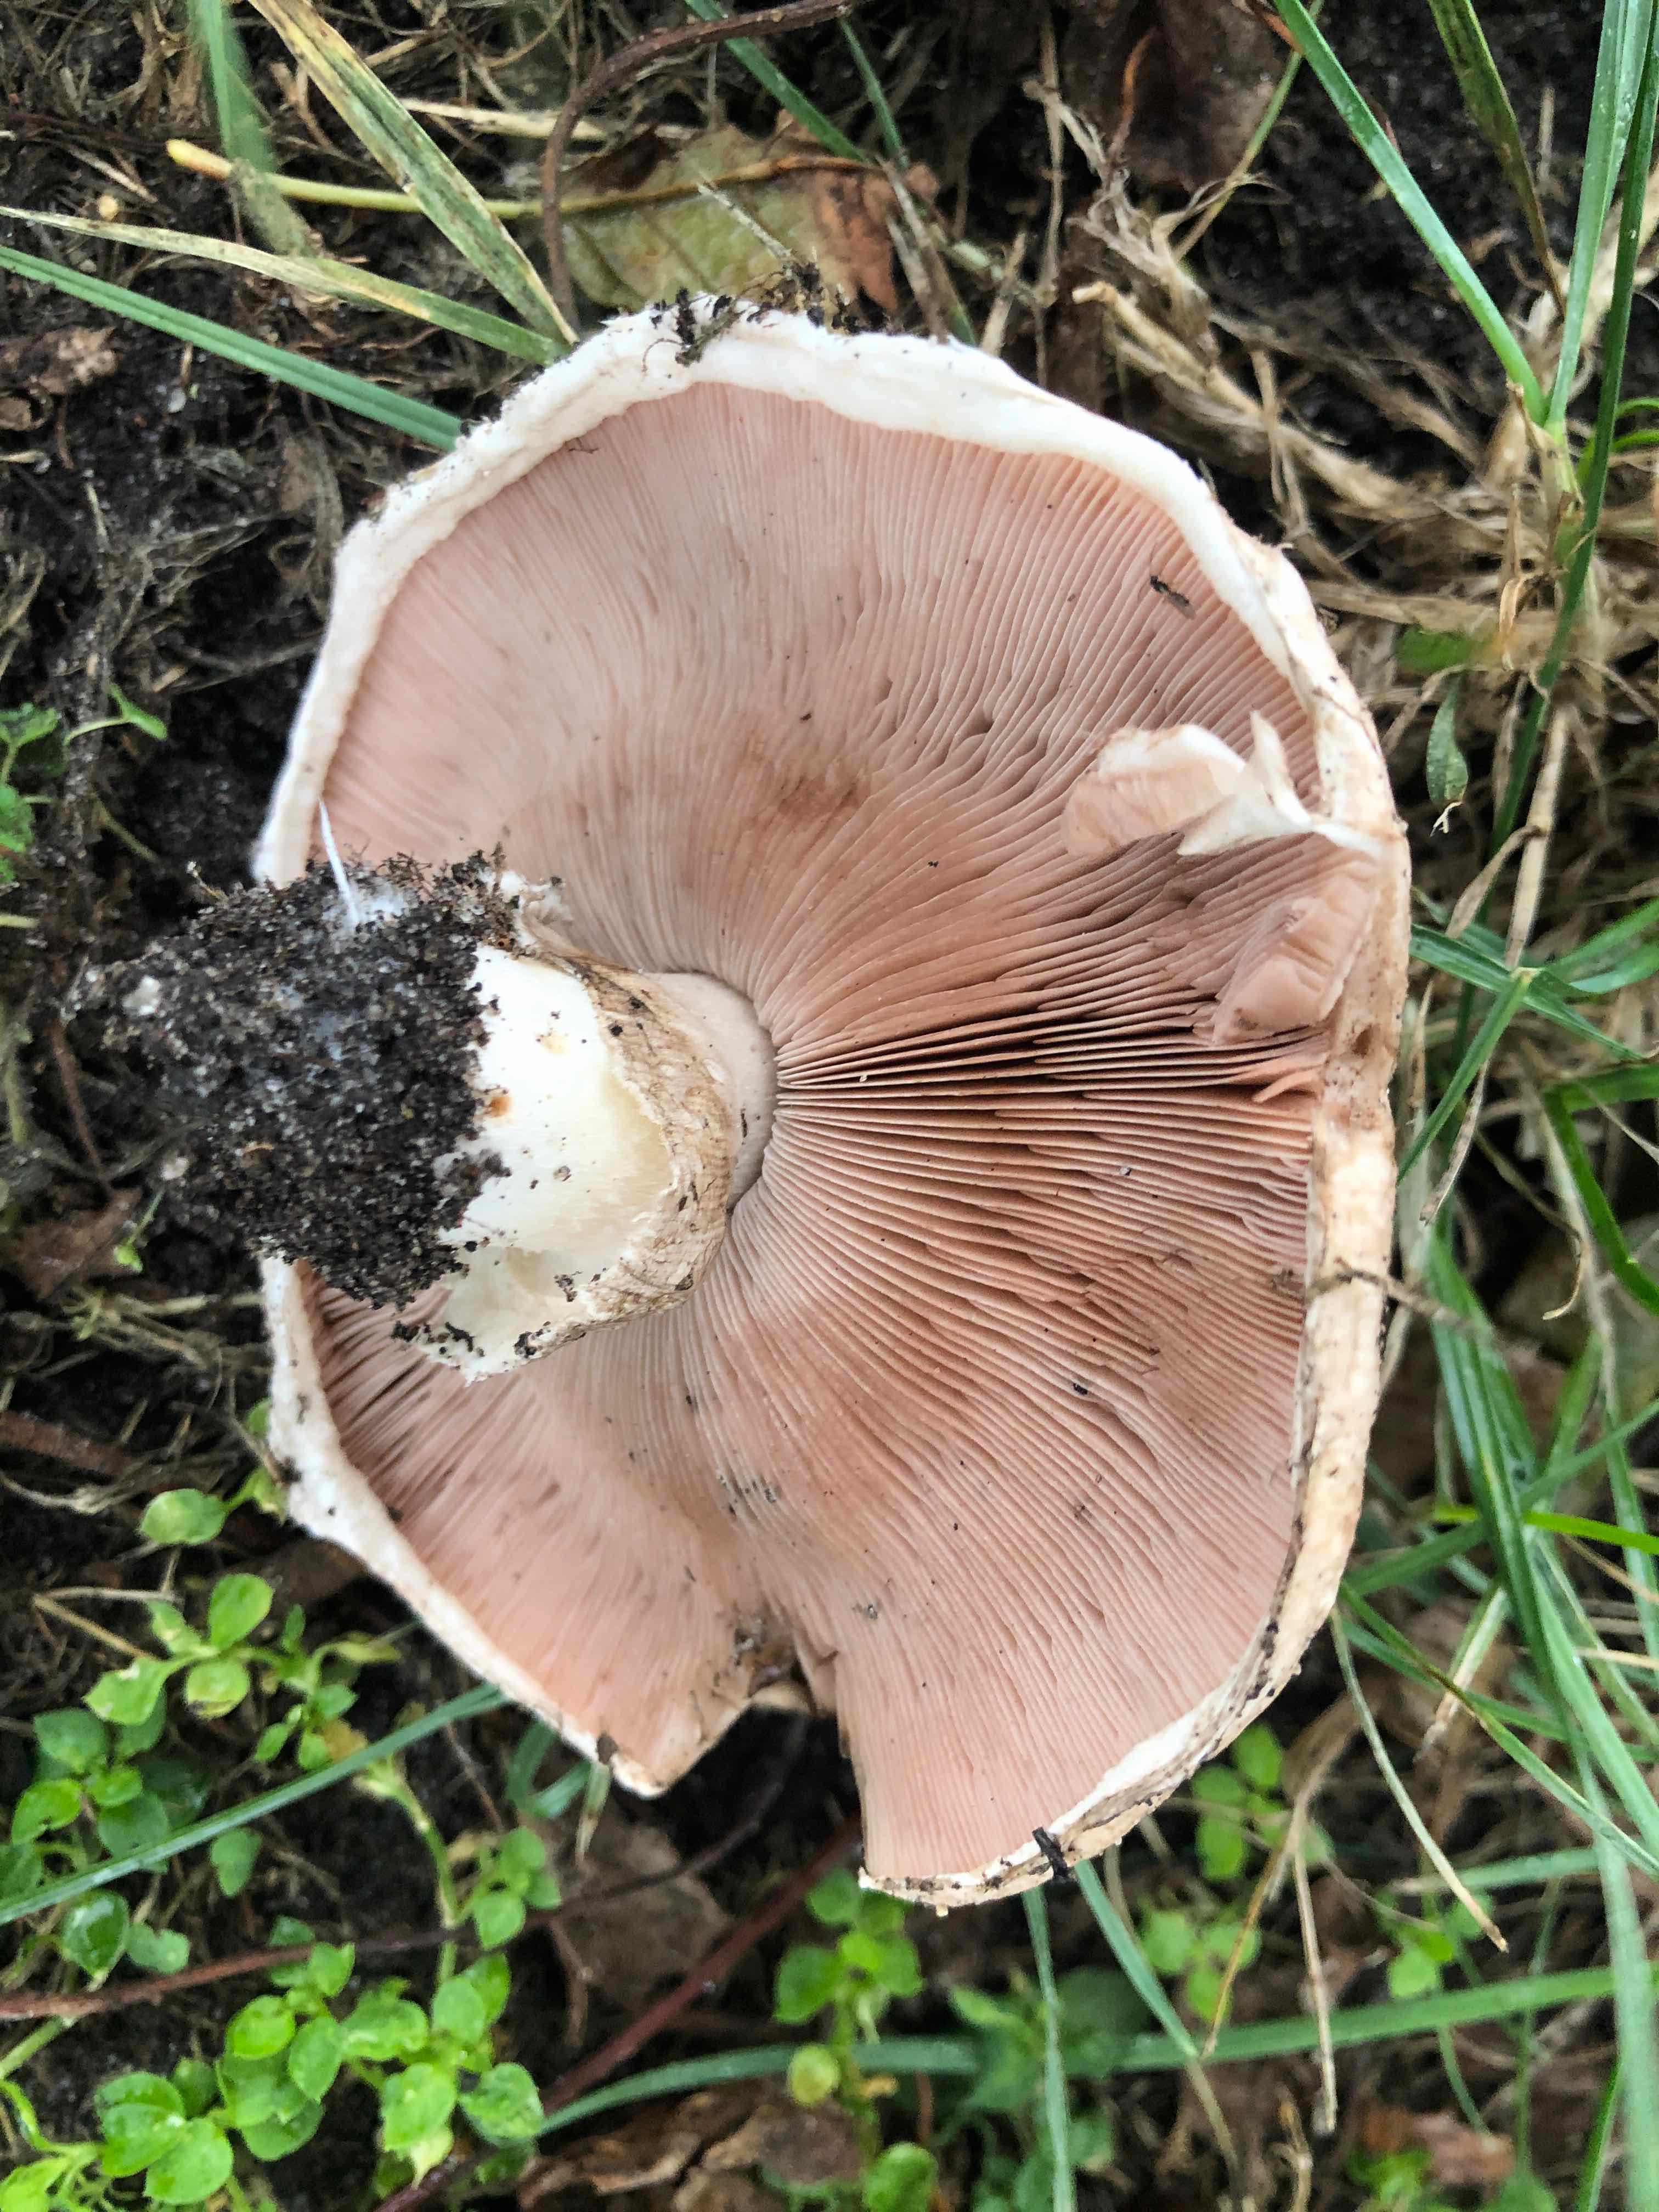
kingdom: Fungi
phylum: Basidiomycota
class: Agaricomycetes
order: Agaricales
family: Agaricaceae
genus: Agaricus
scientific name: Agaricus
